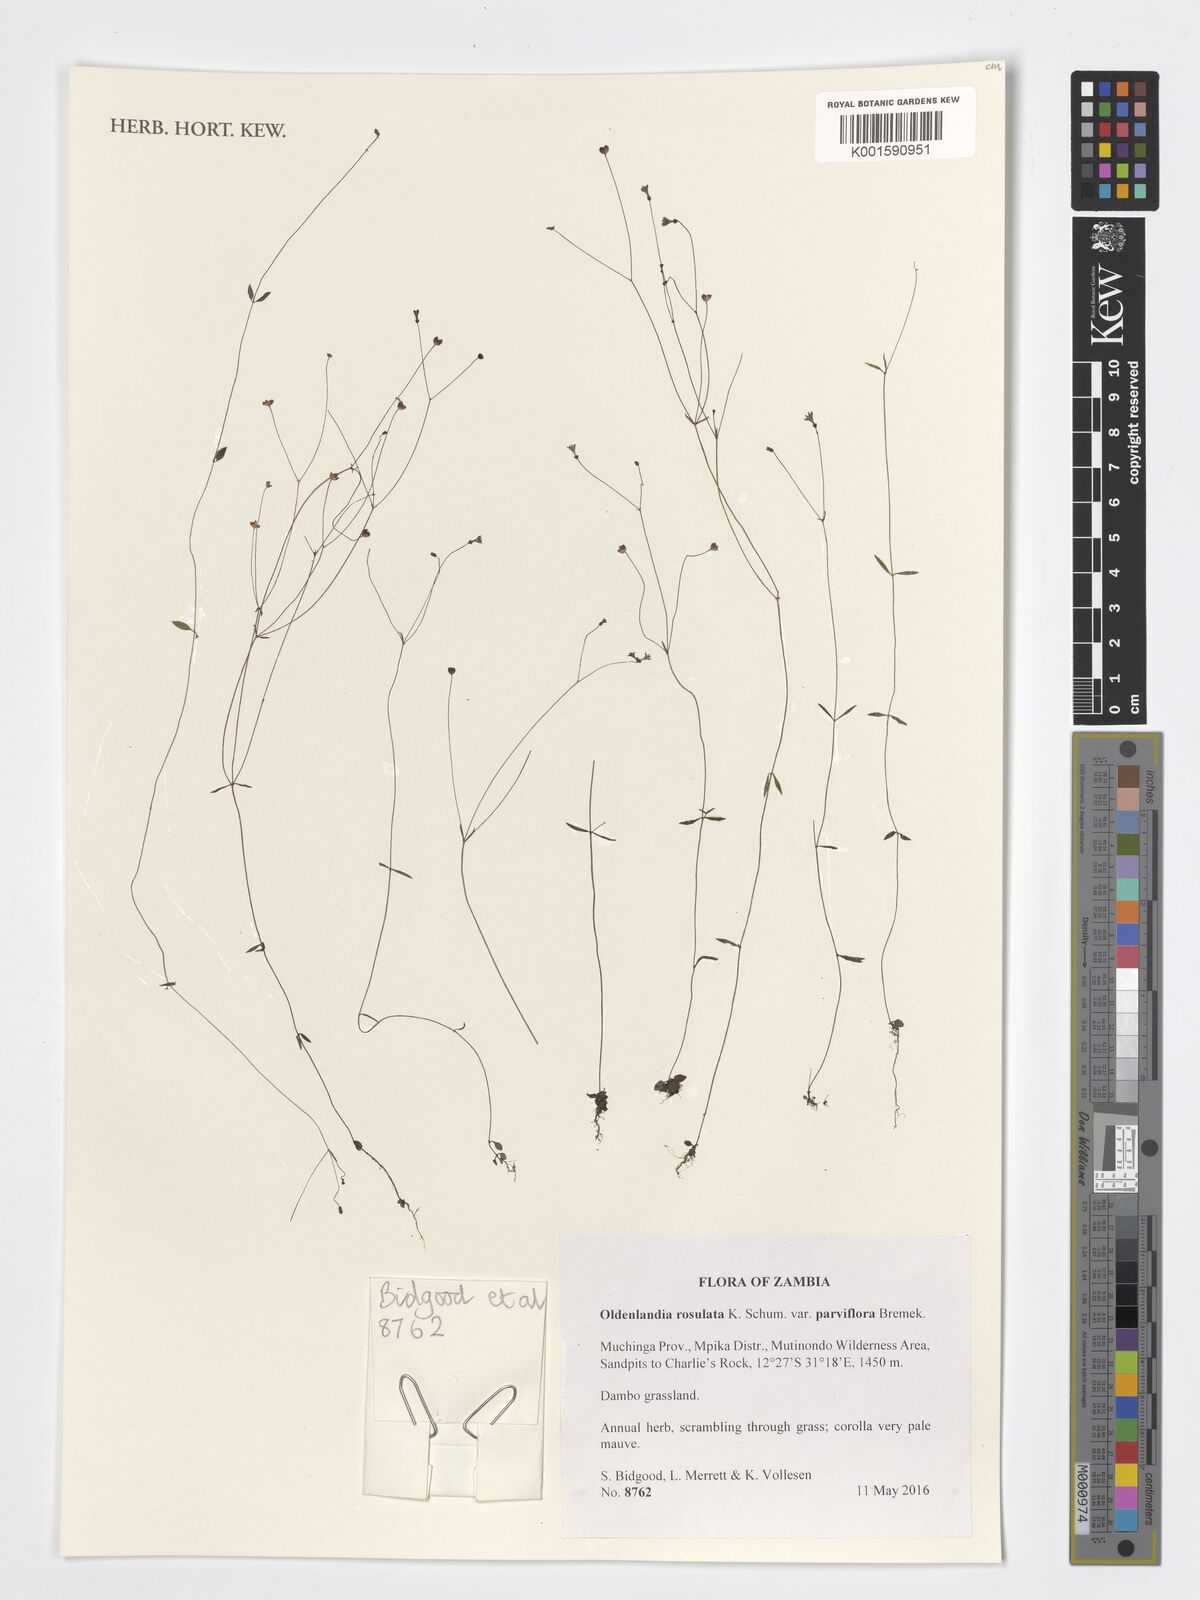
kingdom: Plantae
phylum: Tracheophyta
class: Magnoliopsida
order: Gentianales
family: Rubiaceae
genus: Oldenlandia
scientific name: Oldenlandia rosulata
